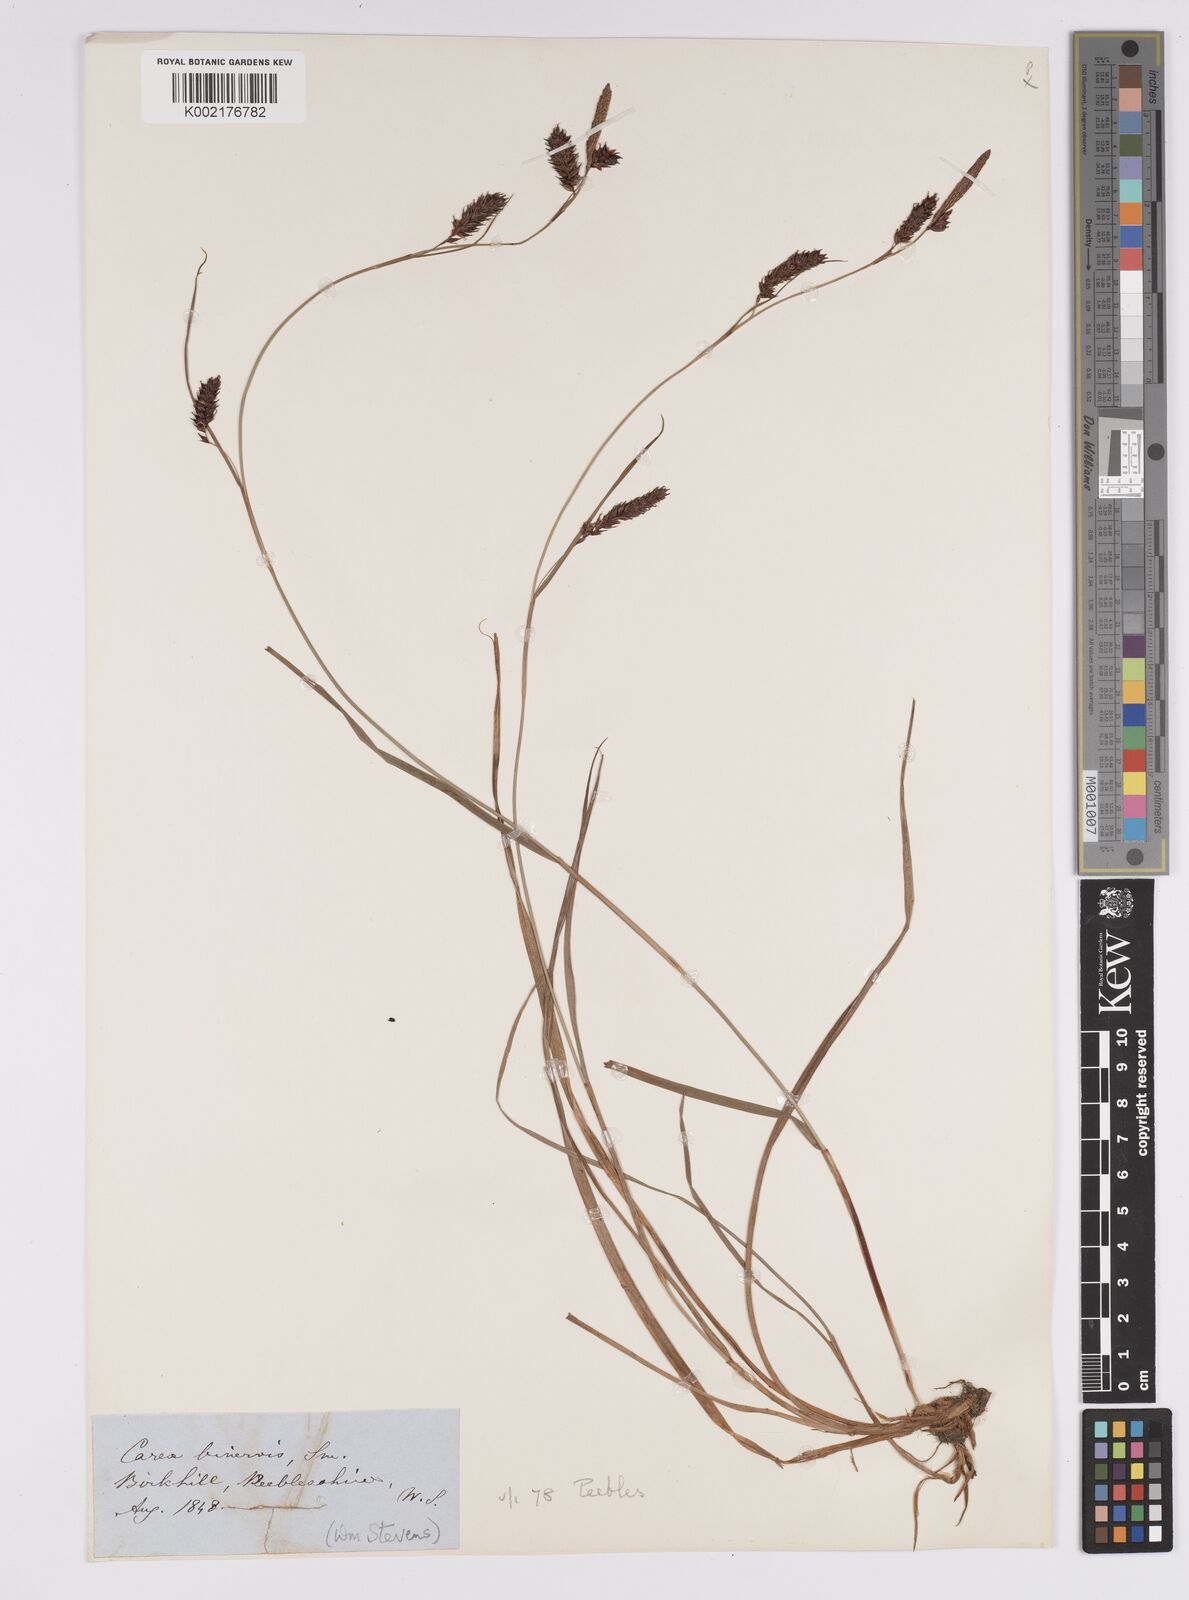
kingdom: Plantae
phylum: Tracheophyta
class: Liliopsida
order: Poales
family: Cyperaceae
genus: Carex
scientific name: Carex binervis
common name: Green-ribbed sedge
